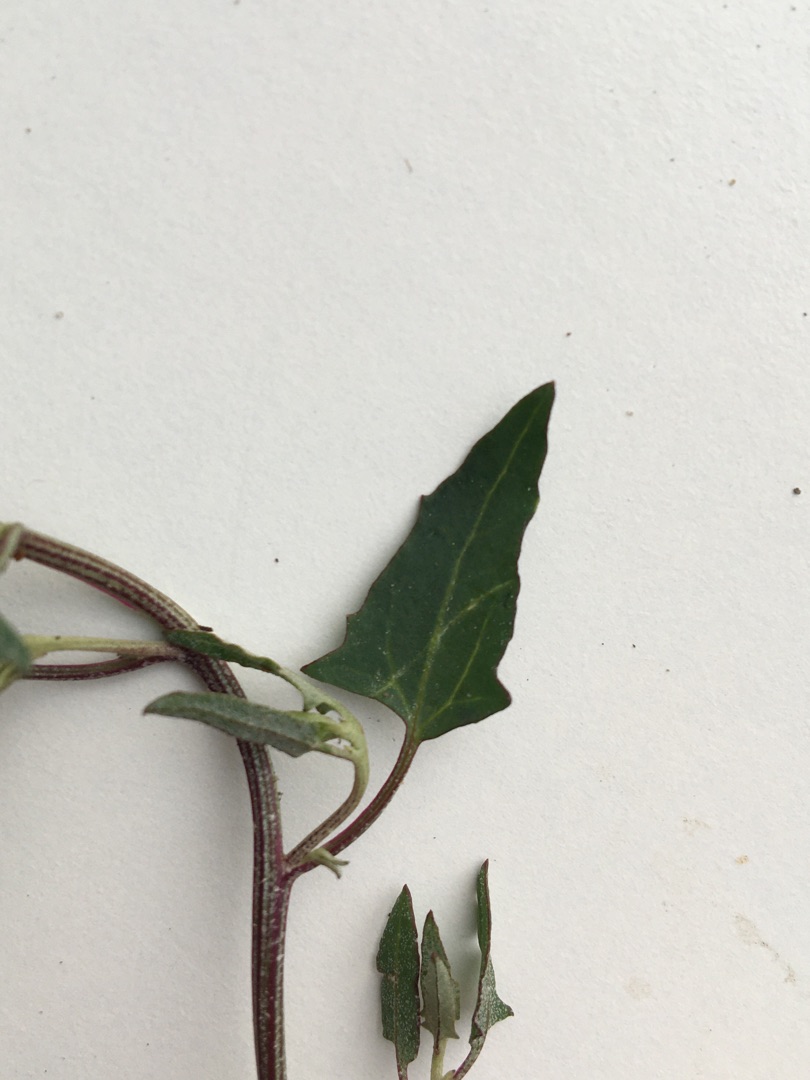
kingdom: Plantae
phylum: Tracheophyta
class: Magnoliopsida
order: Caryophyllales
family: Amaranthaceae
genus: Atriplex
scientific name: Atriplex prostrata
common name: Spyd-mælde
